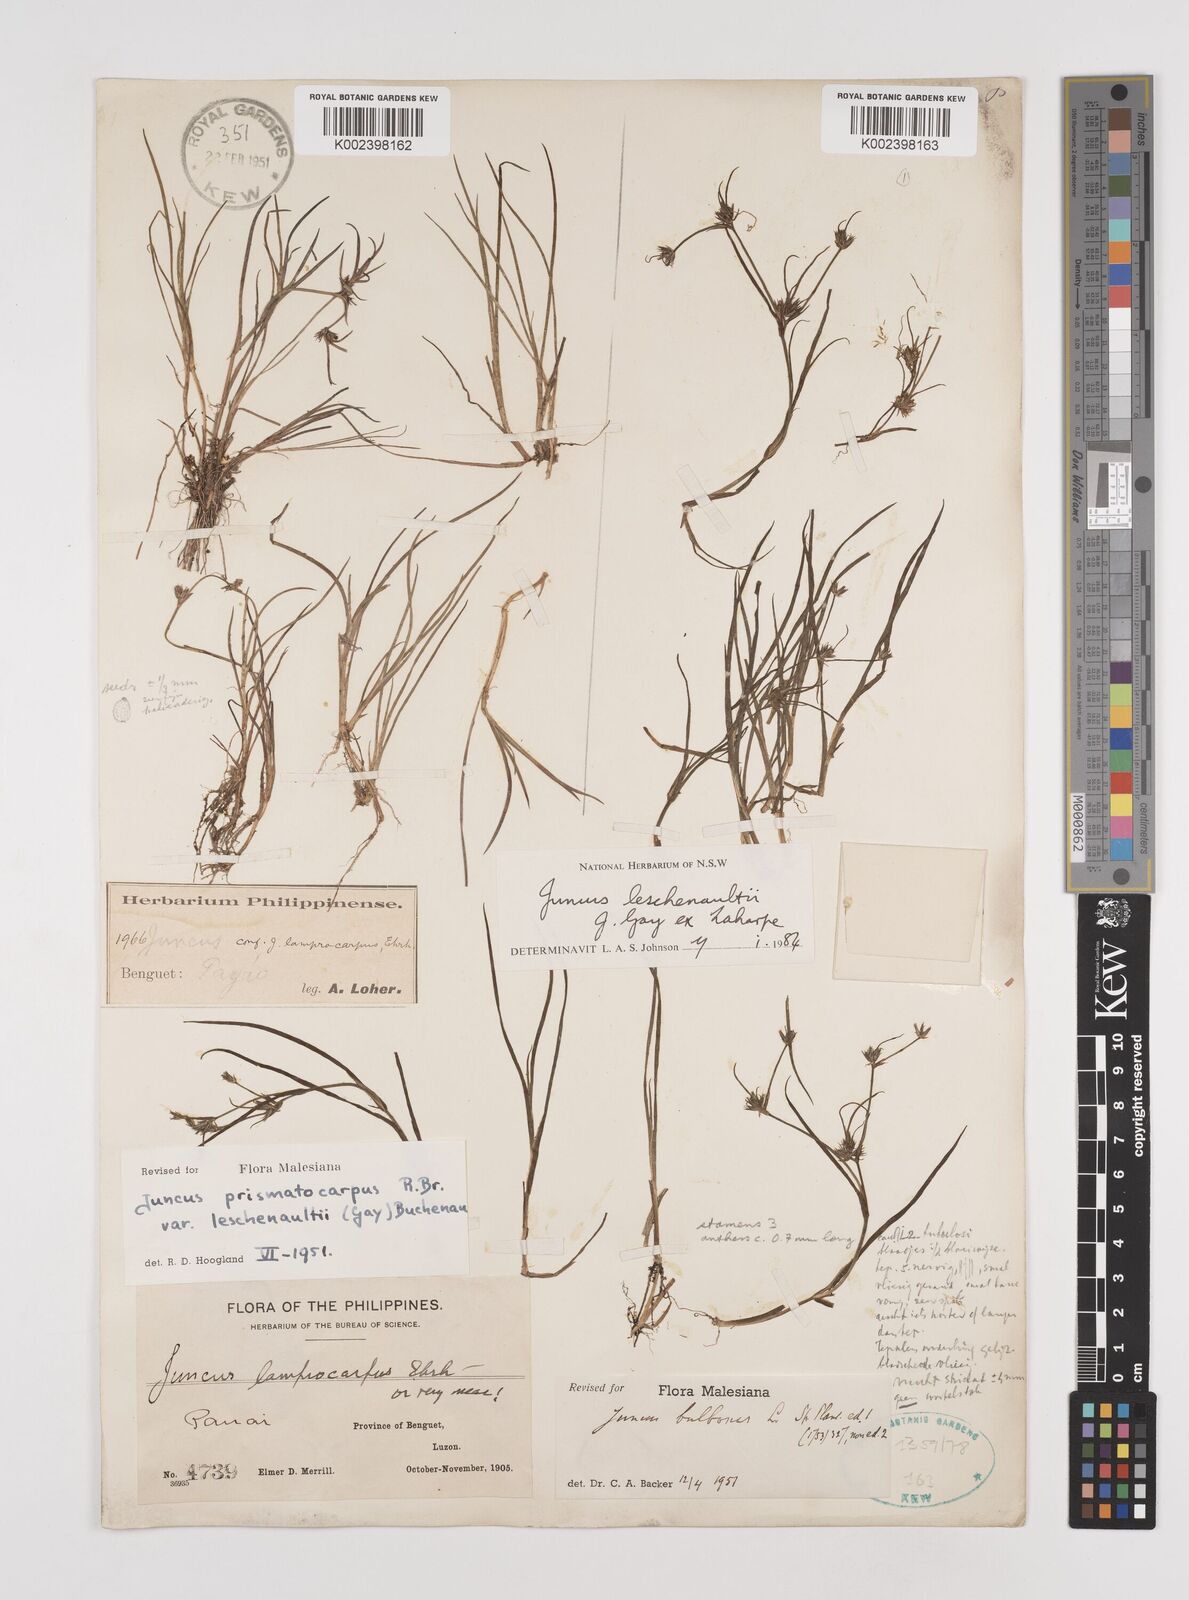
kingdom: Plantae
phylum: Tracheophyta
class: Liliopsida
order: Poales
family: Juncaceae
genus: Juncus
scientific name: Juncus prismatocarpus
